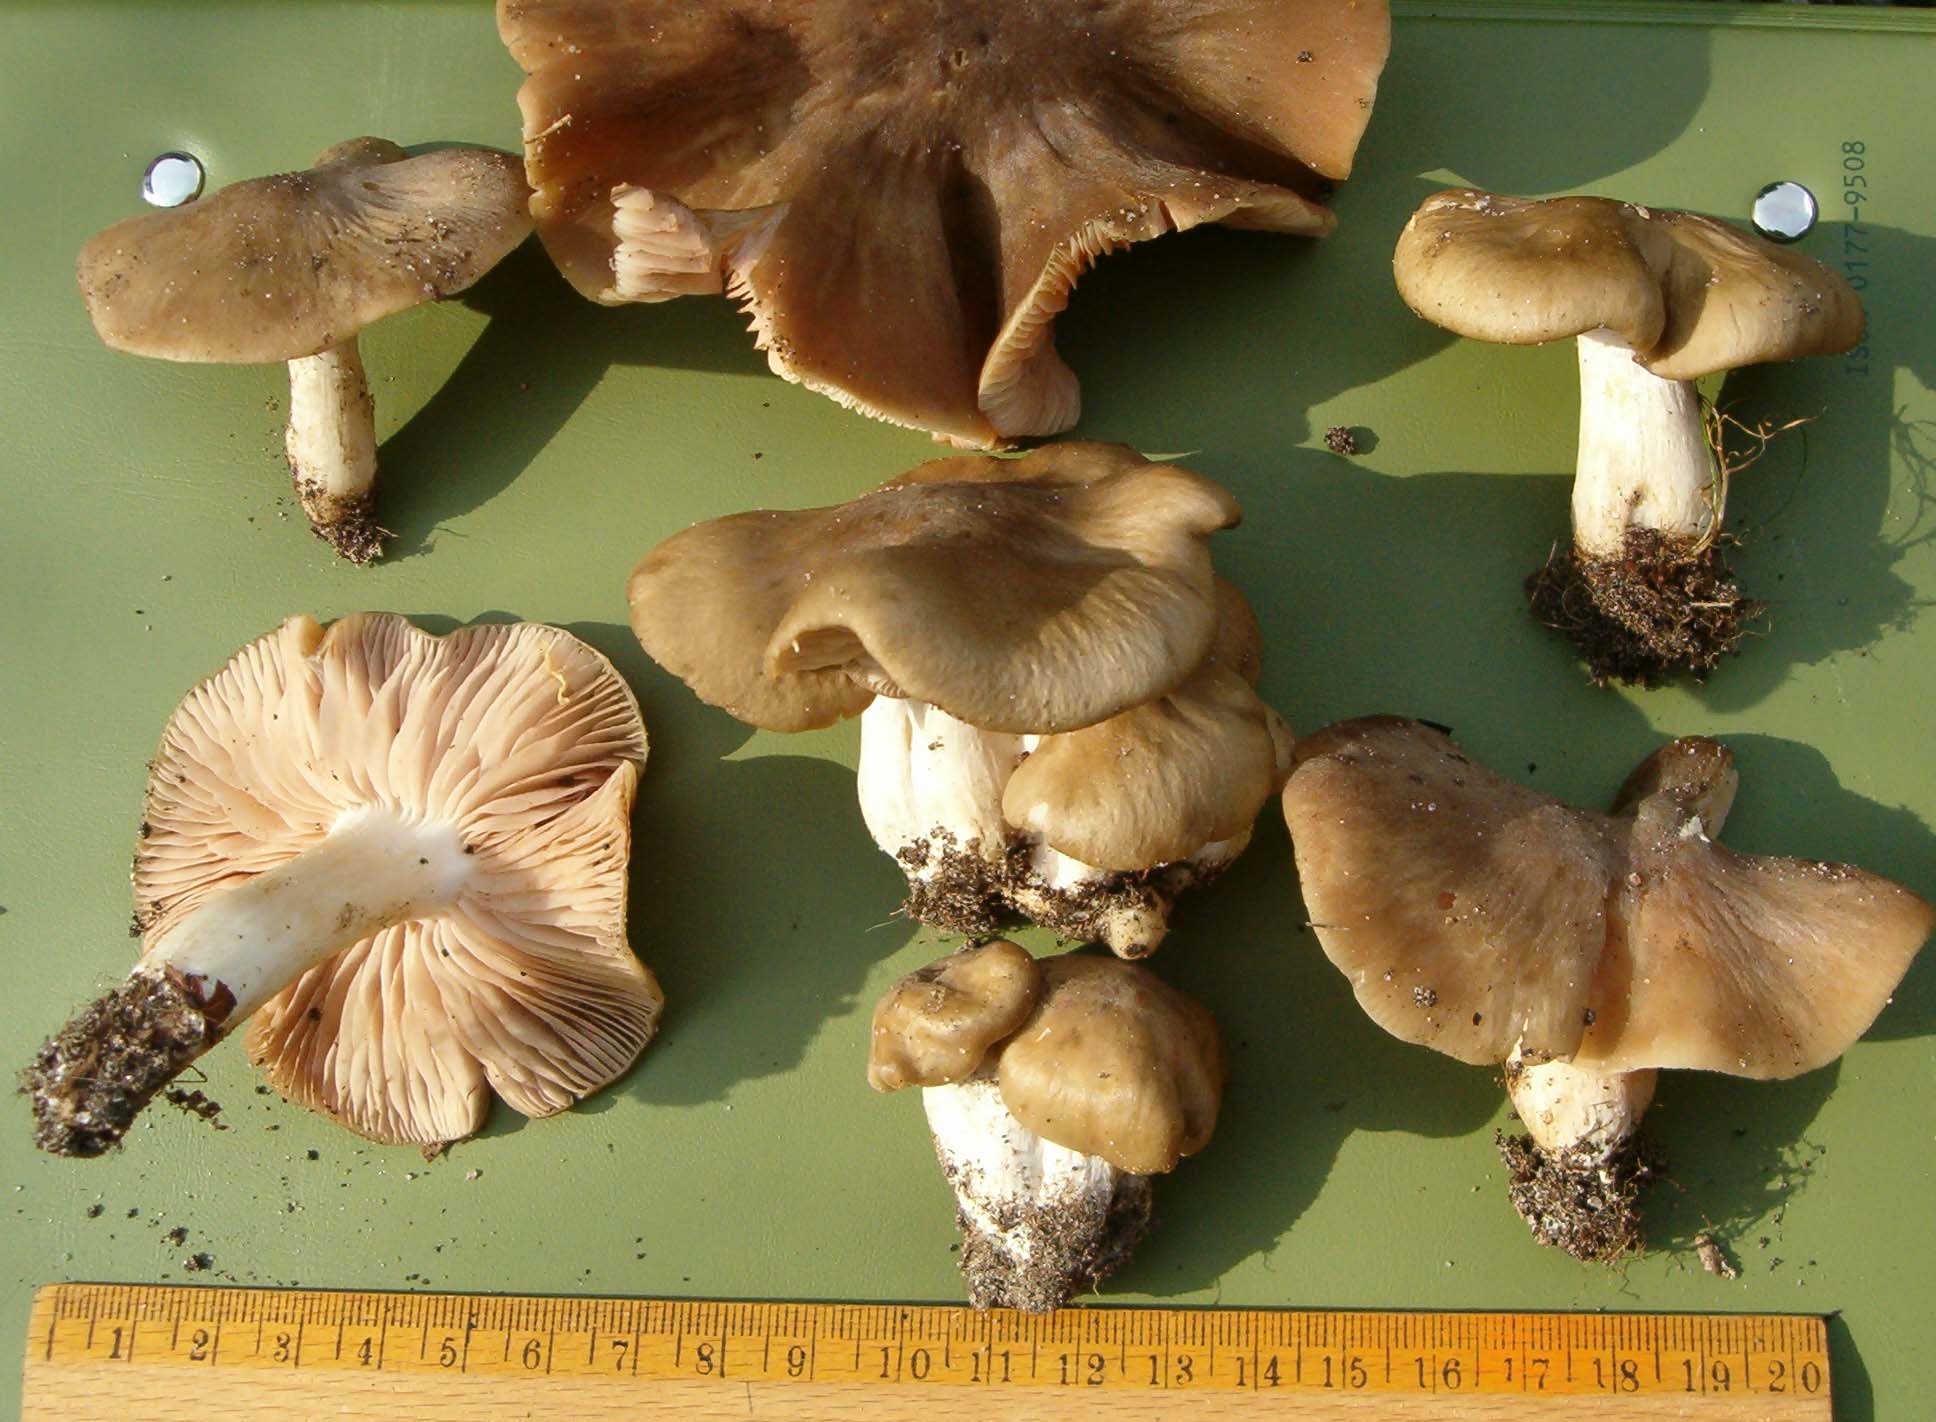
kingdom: Fungi
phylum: Basidiomycota
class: Agaricomycetes
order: Agaricales
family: Entolomataceae
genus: Entoloma
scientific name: Entoloma lividoalbum
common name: lysstokket rødblad
